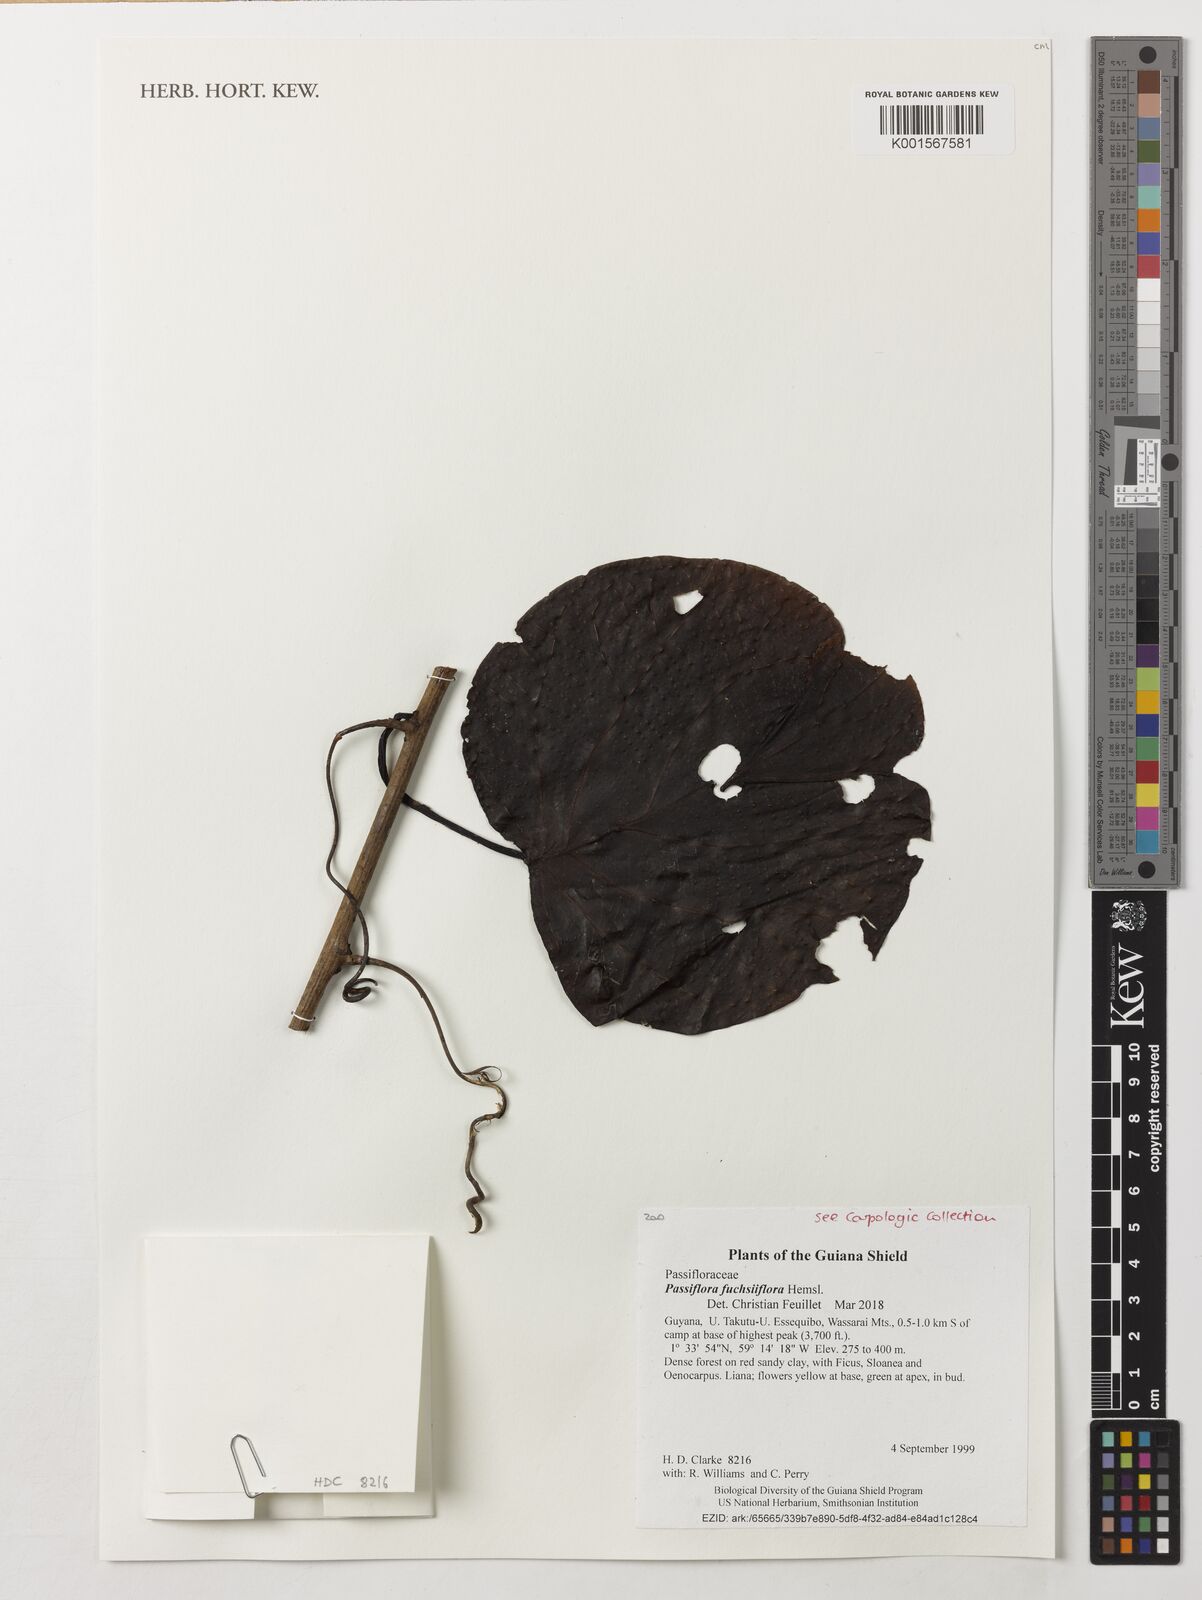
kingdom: Plantae
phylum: Tracheophyta
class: Magnoliopsida
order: Malpighiales
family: Passifloraceae
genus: Passiflora
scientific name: Passiflora fuchsiiflora
